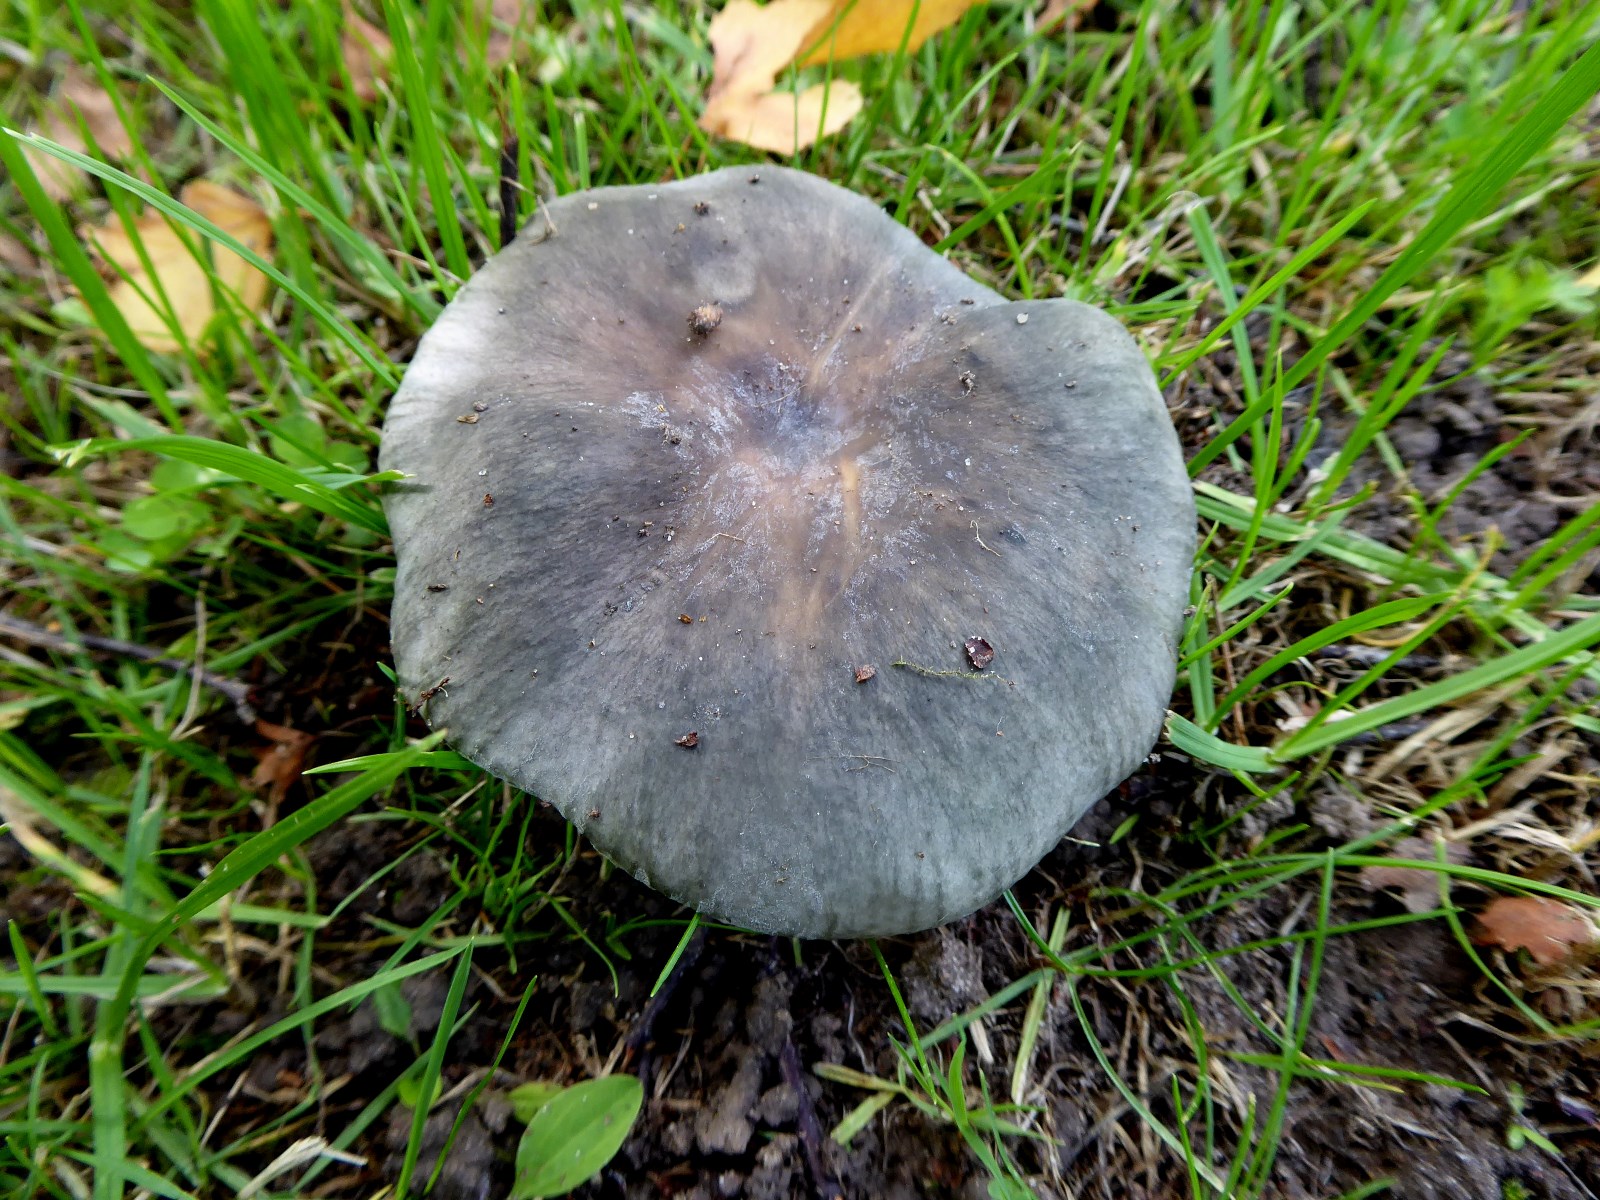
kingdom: Fungi
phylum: Basidiomycota
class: Agaricomycetes
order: Russulales
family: Russulaceae
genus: Russula
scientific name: Russula parazurea
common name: blågrå skørhat
